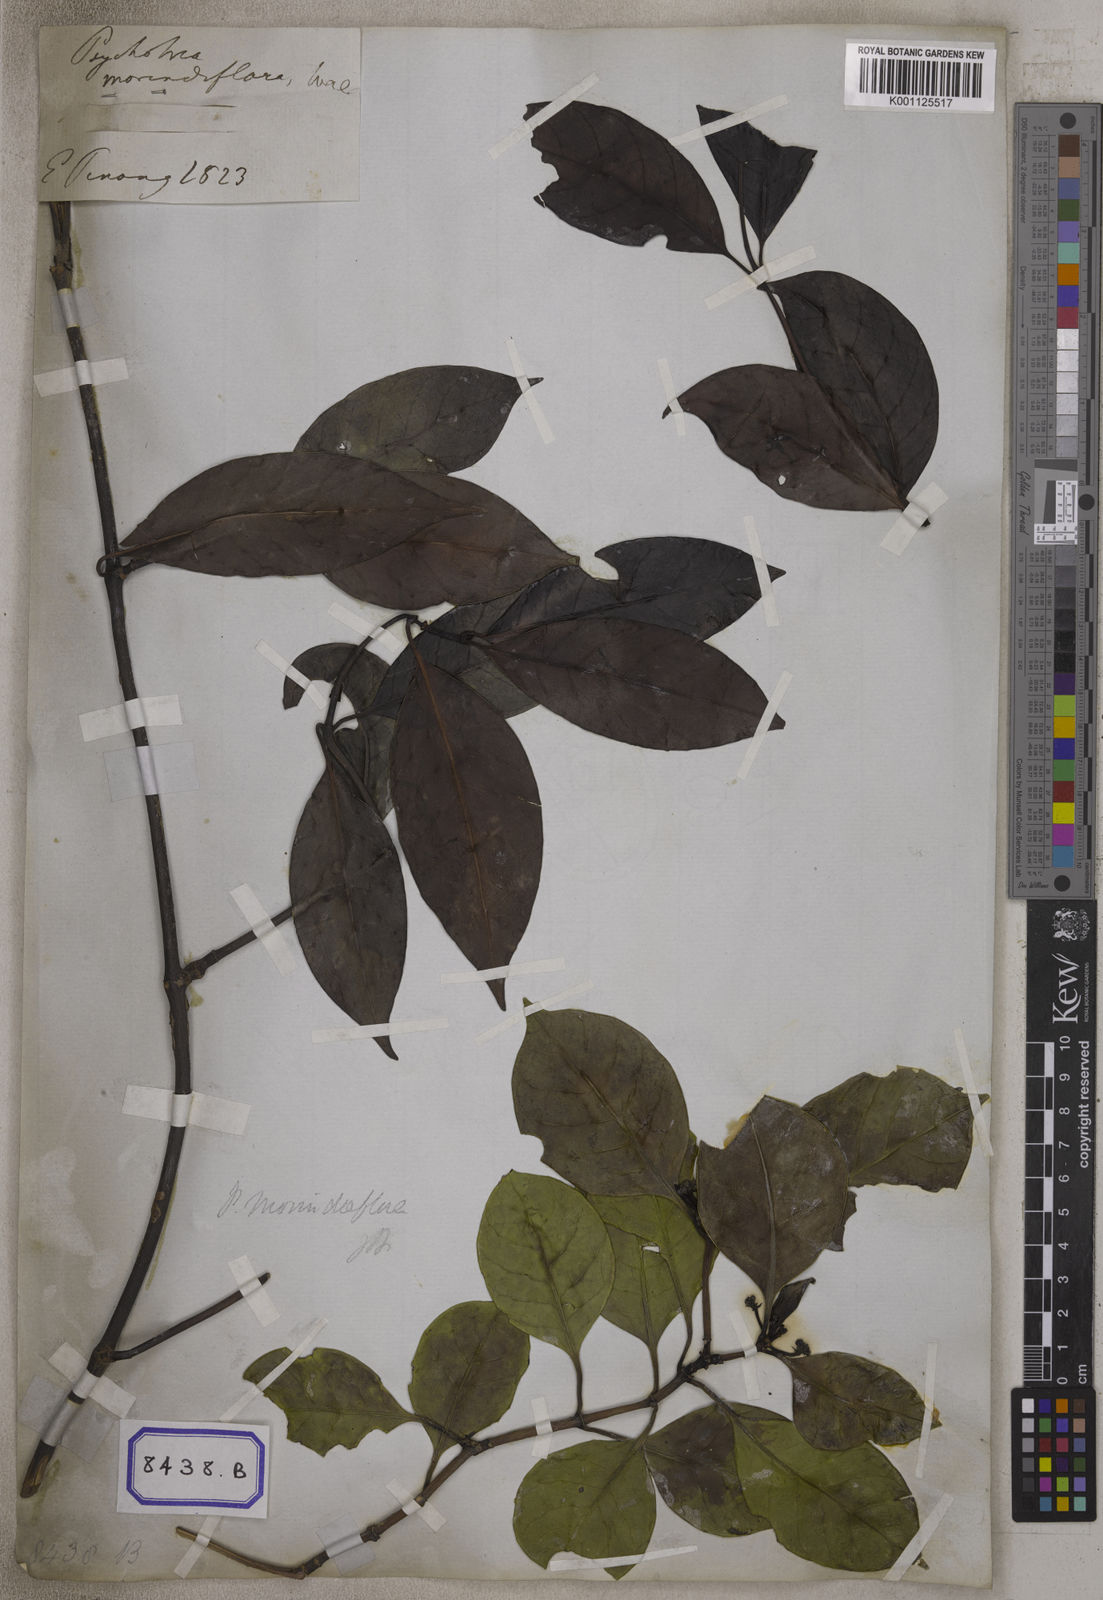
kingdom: Plantae
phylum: Tracheophyta
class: Magnoliopsida
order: Gentianales
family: Rubiaceae
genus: Psychotria
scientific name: Psychotria
